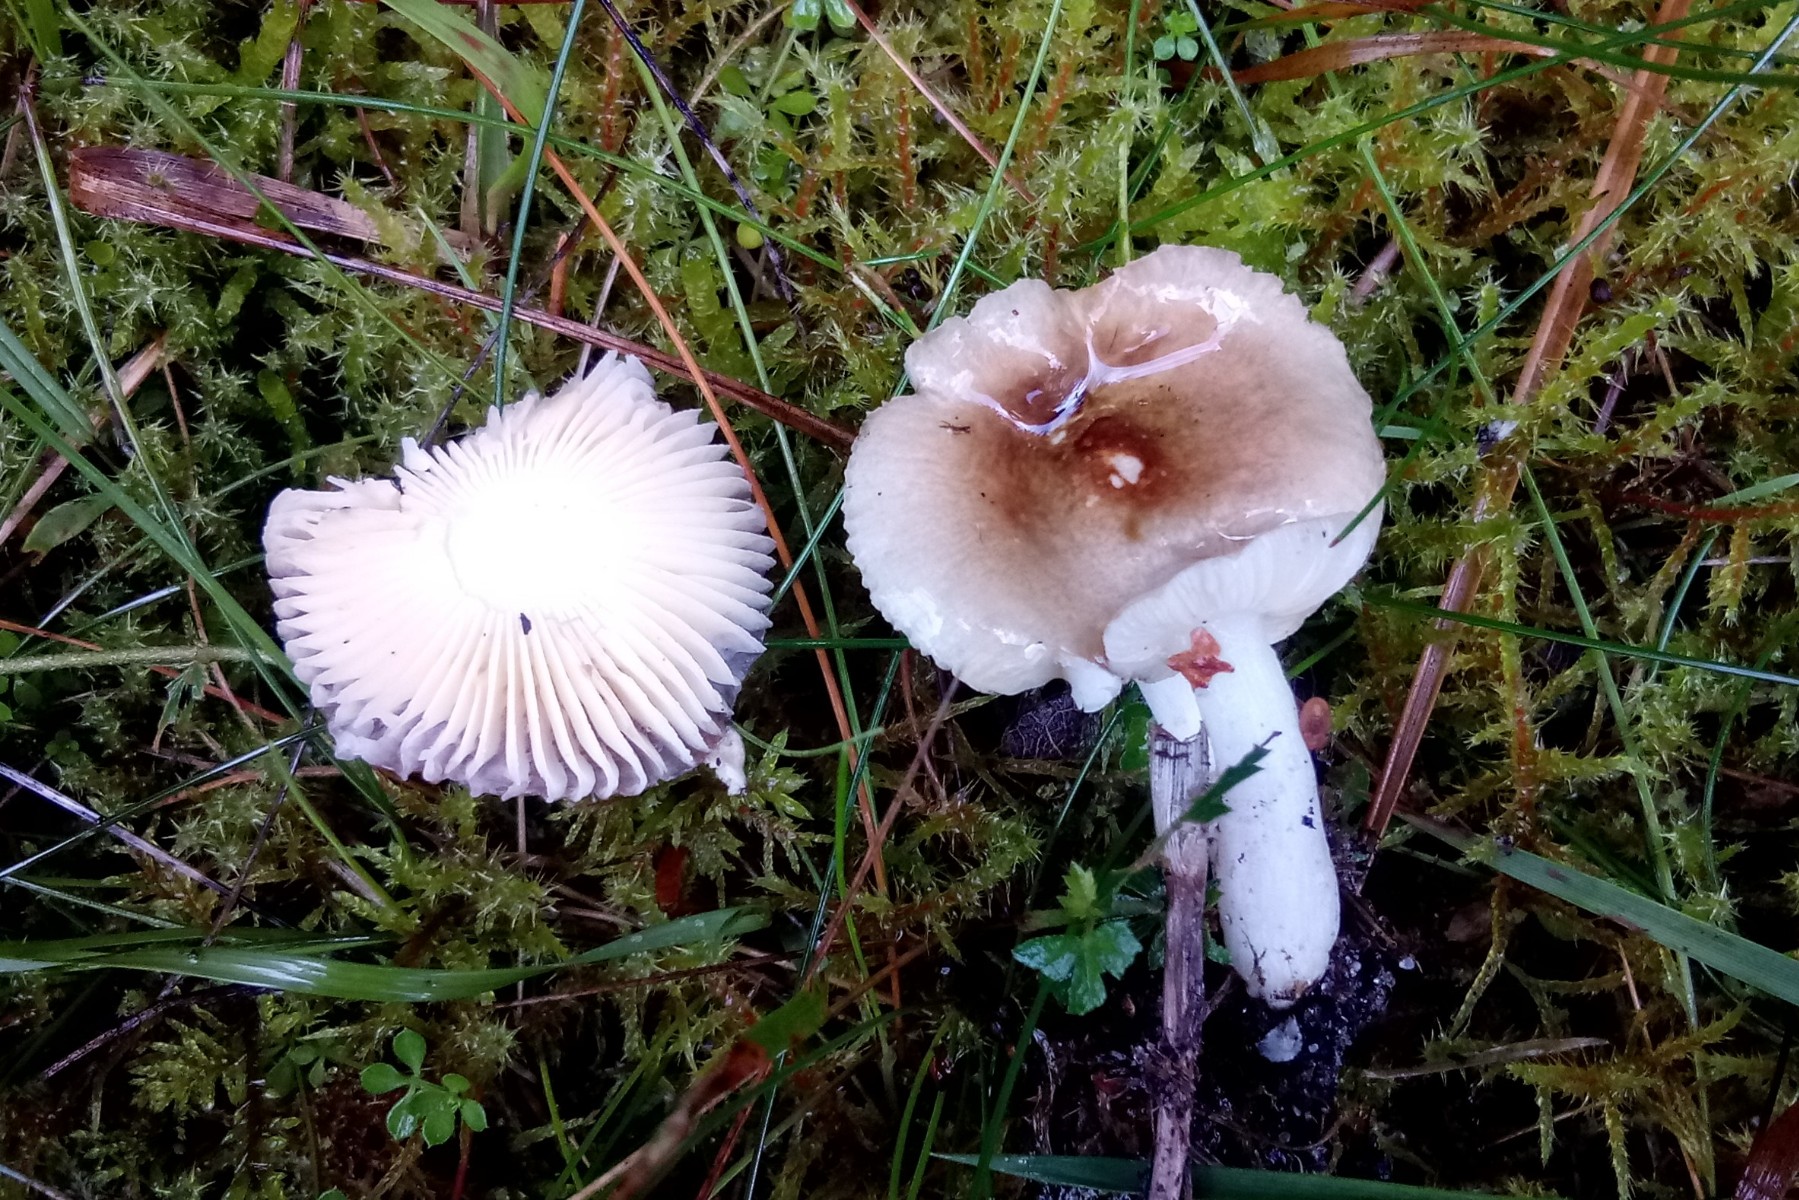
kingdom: Fungi
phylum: Basidiomycota
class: Agaricomycetes
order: Russulales
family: Russulaceae
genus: Russula
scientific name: Russula nauseosa
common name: spinkel skørhat
